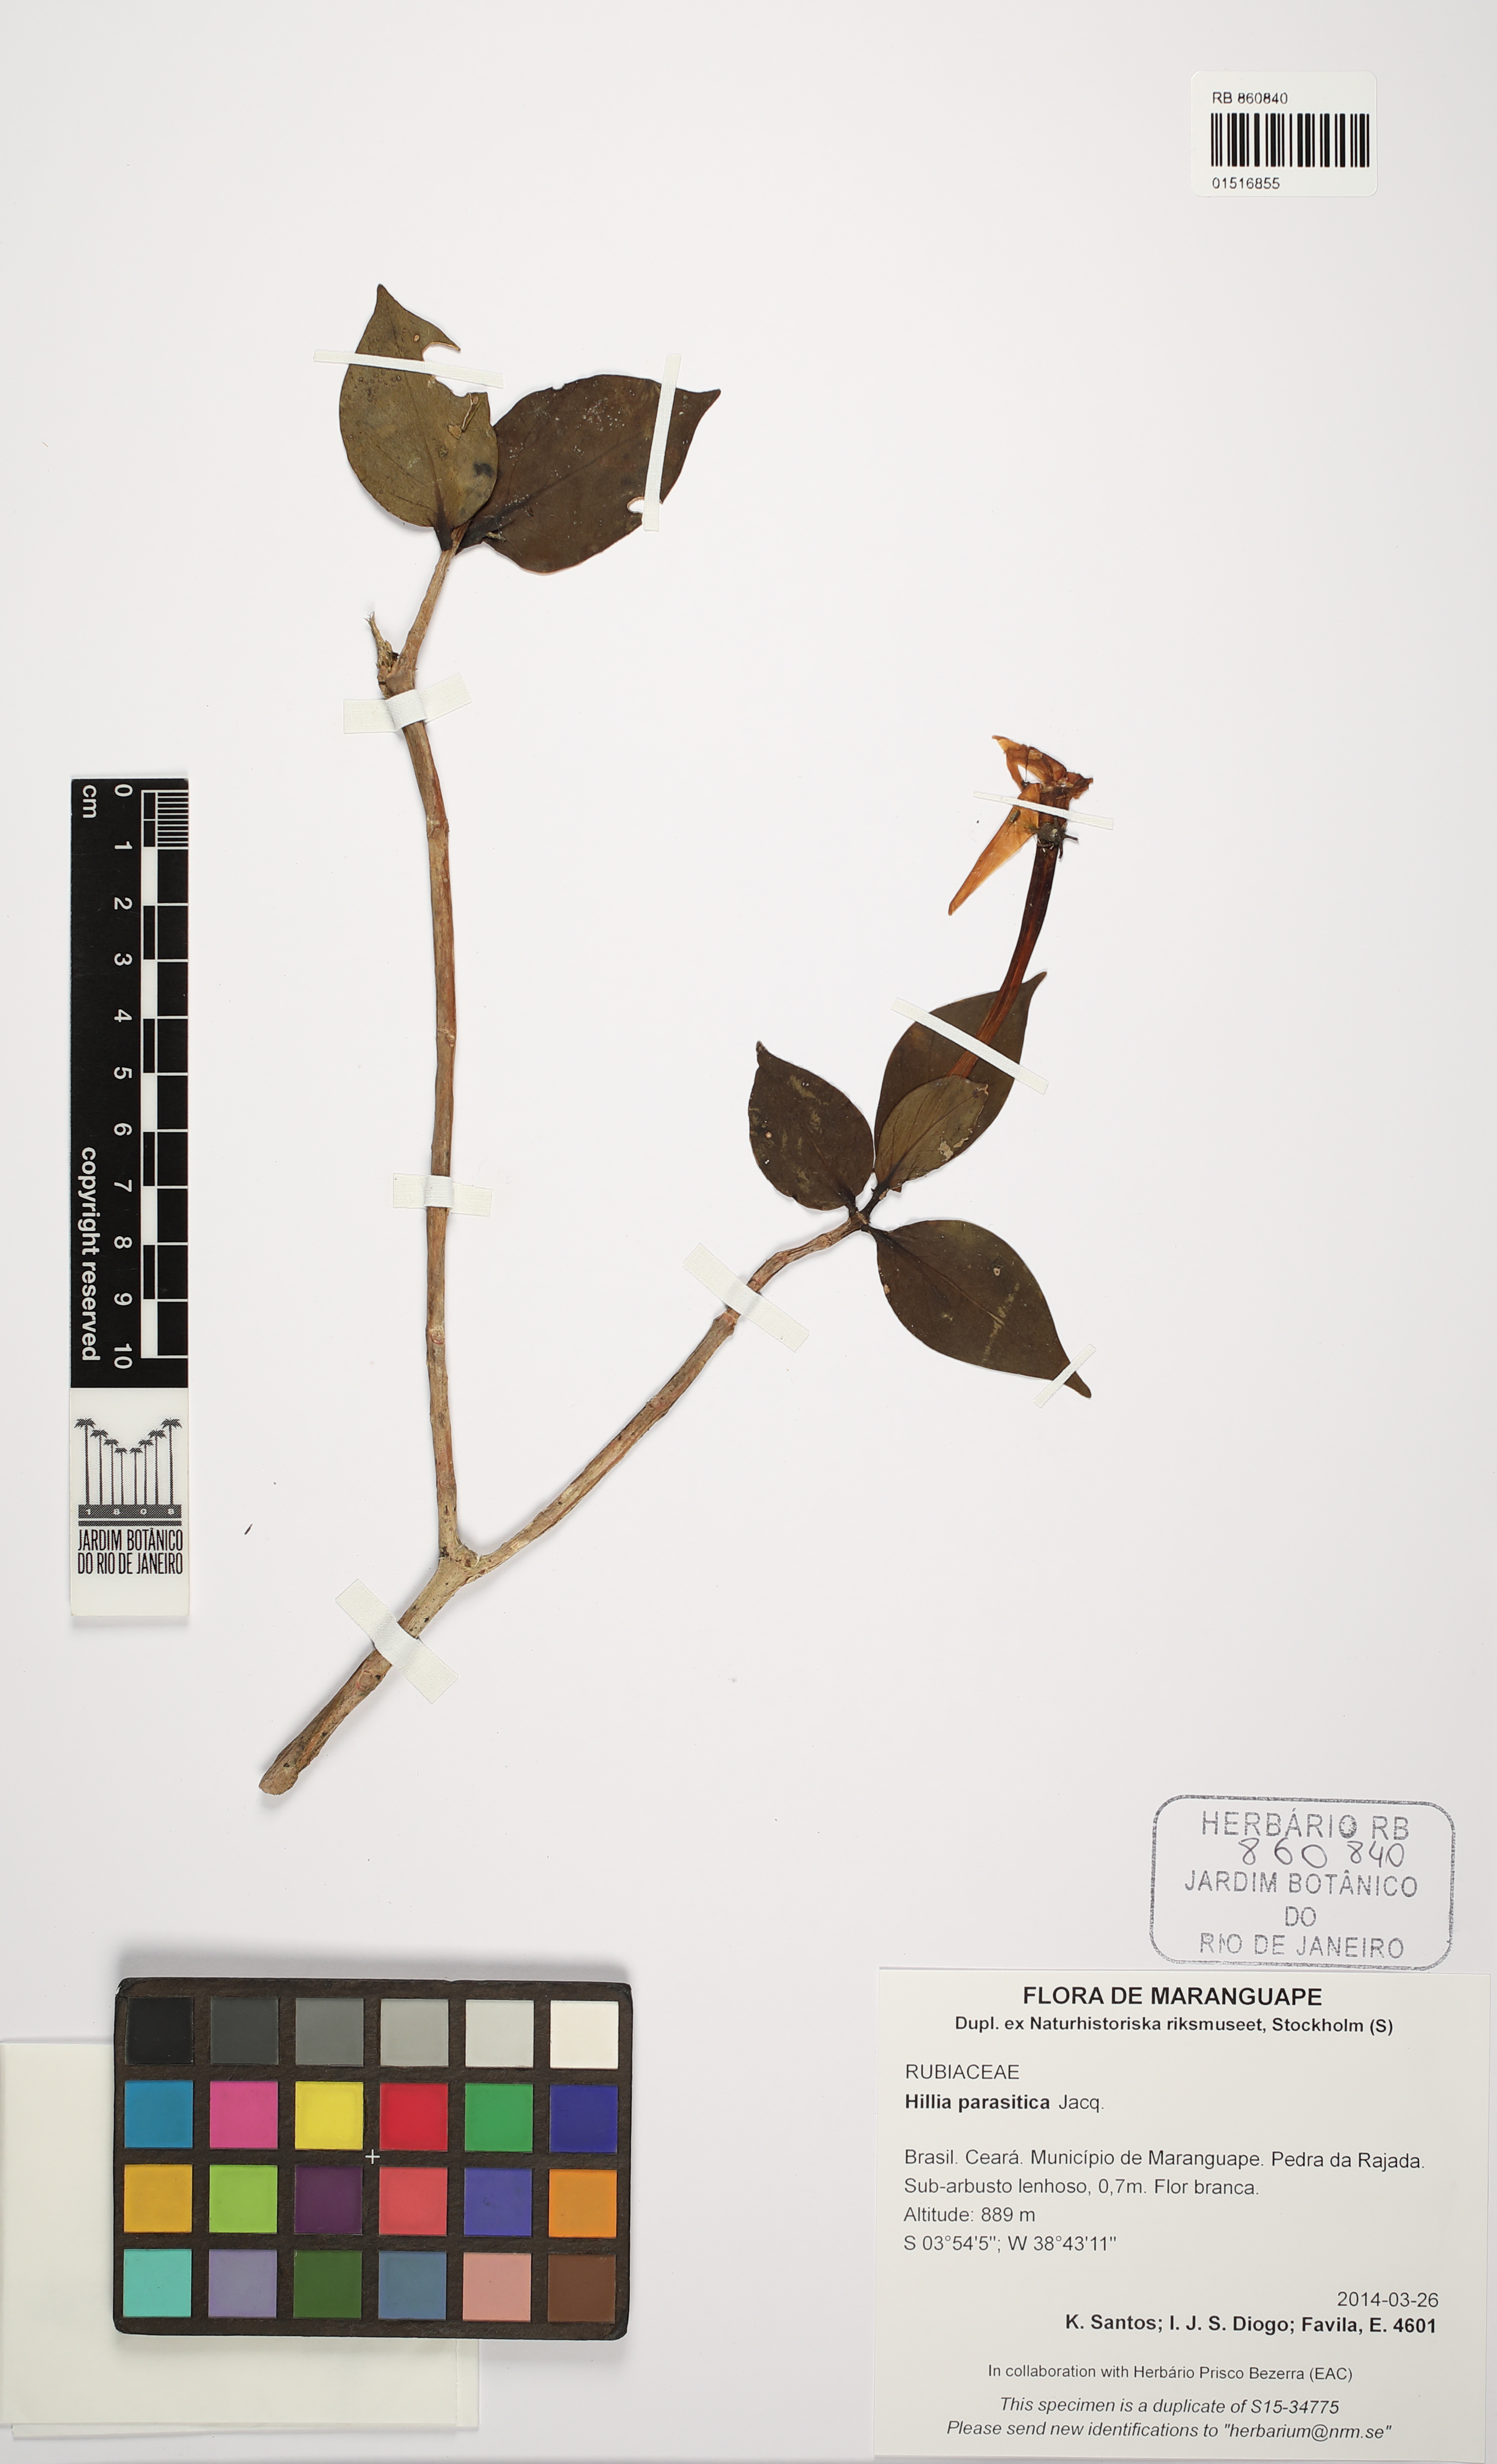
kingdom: Plantae
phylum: Tracheophyta
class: Magnoliopsida
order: Gentianales
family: Rubiaceae
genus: Hillia
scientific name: Hillia parasitica
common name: Morning star
